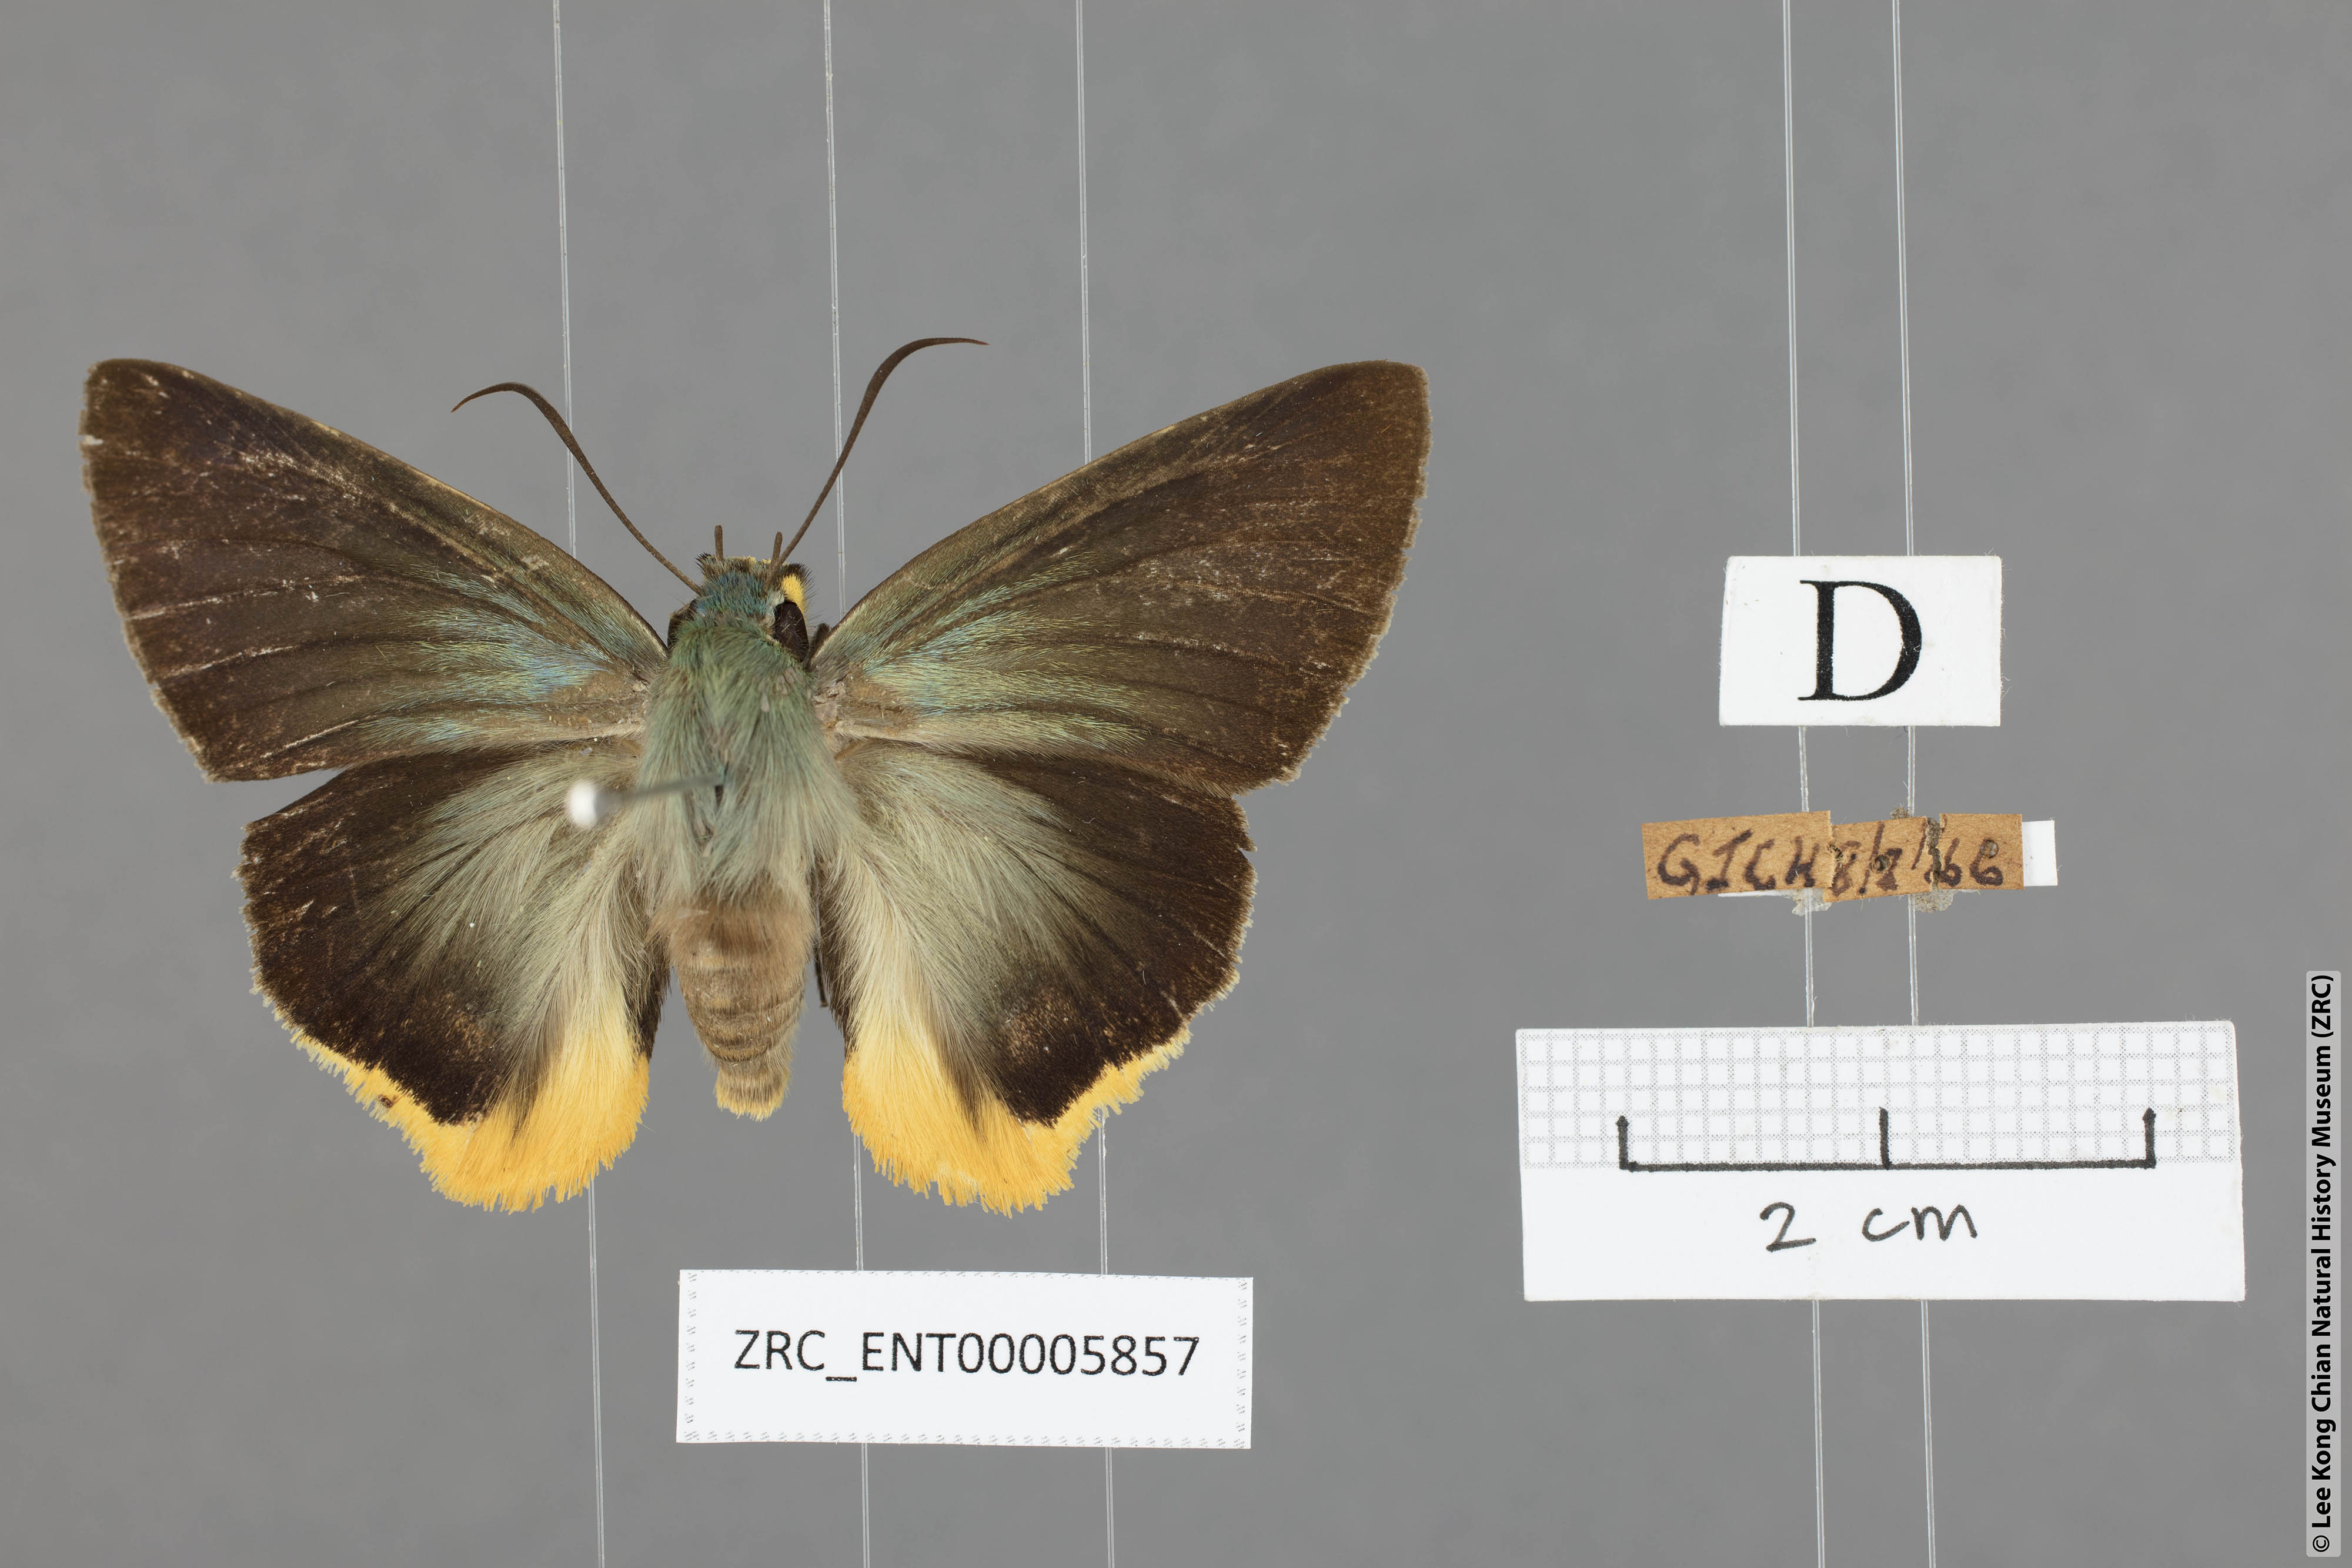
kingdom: Animalia
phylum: Arthropoda
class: Insecta
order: Lepidoptera
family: Hesperiidae
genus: Choaspes
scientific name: Choaspes benjaminii
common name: Indian awlking
